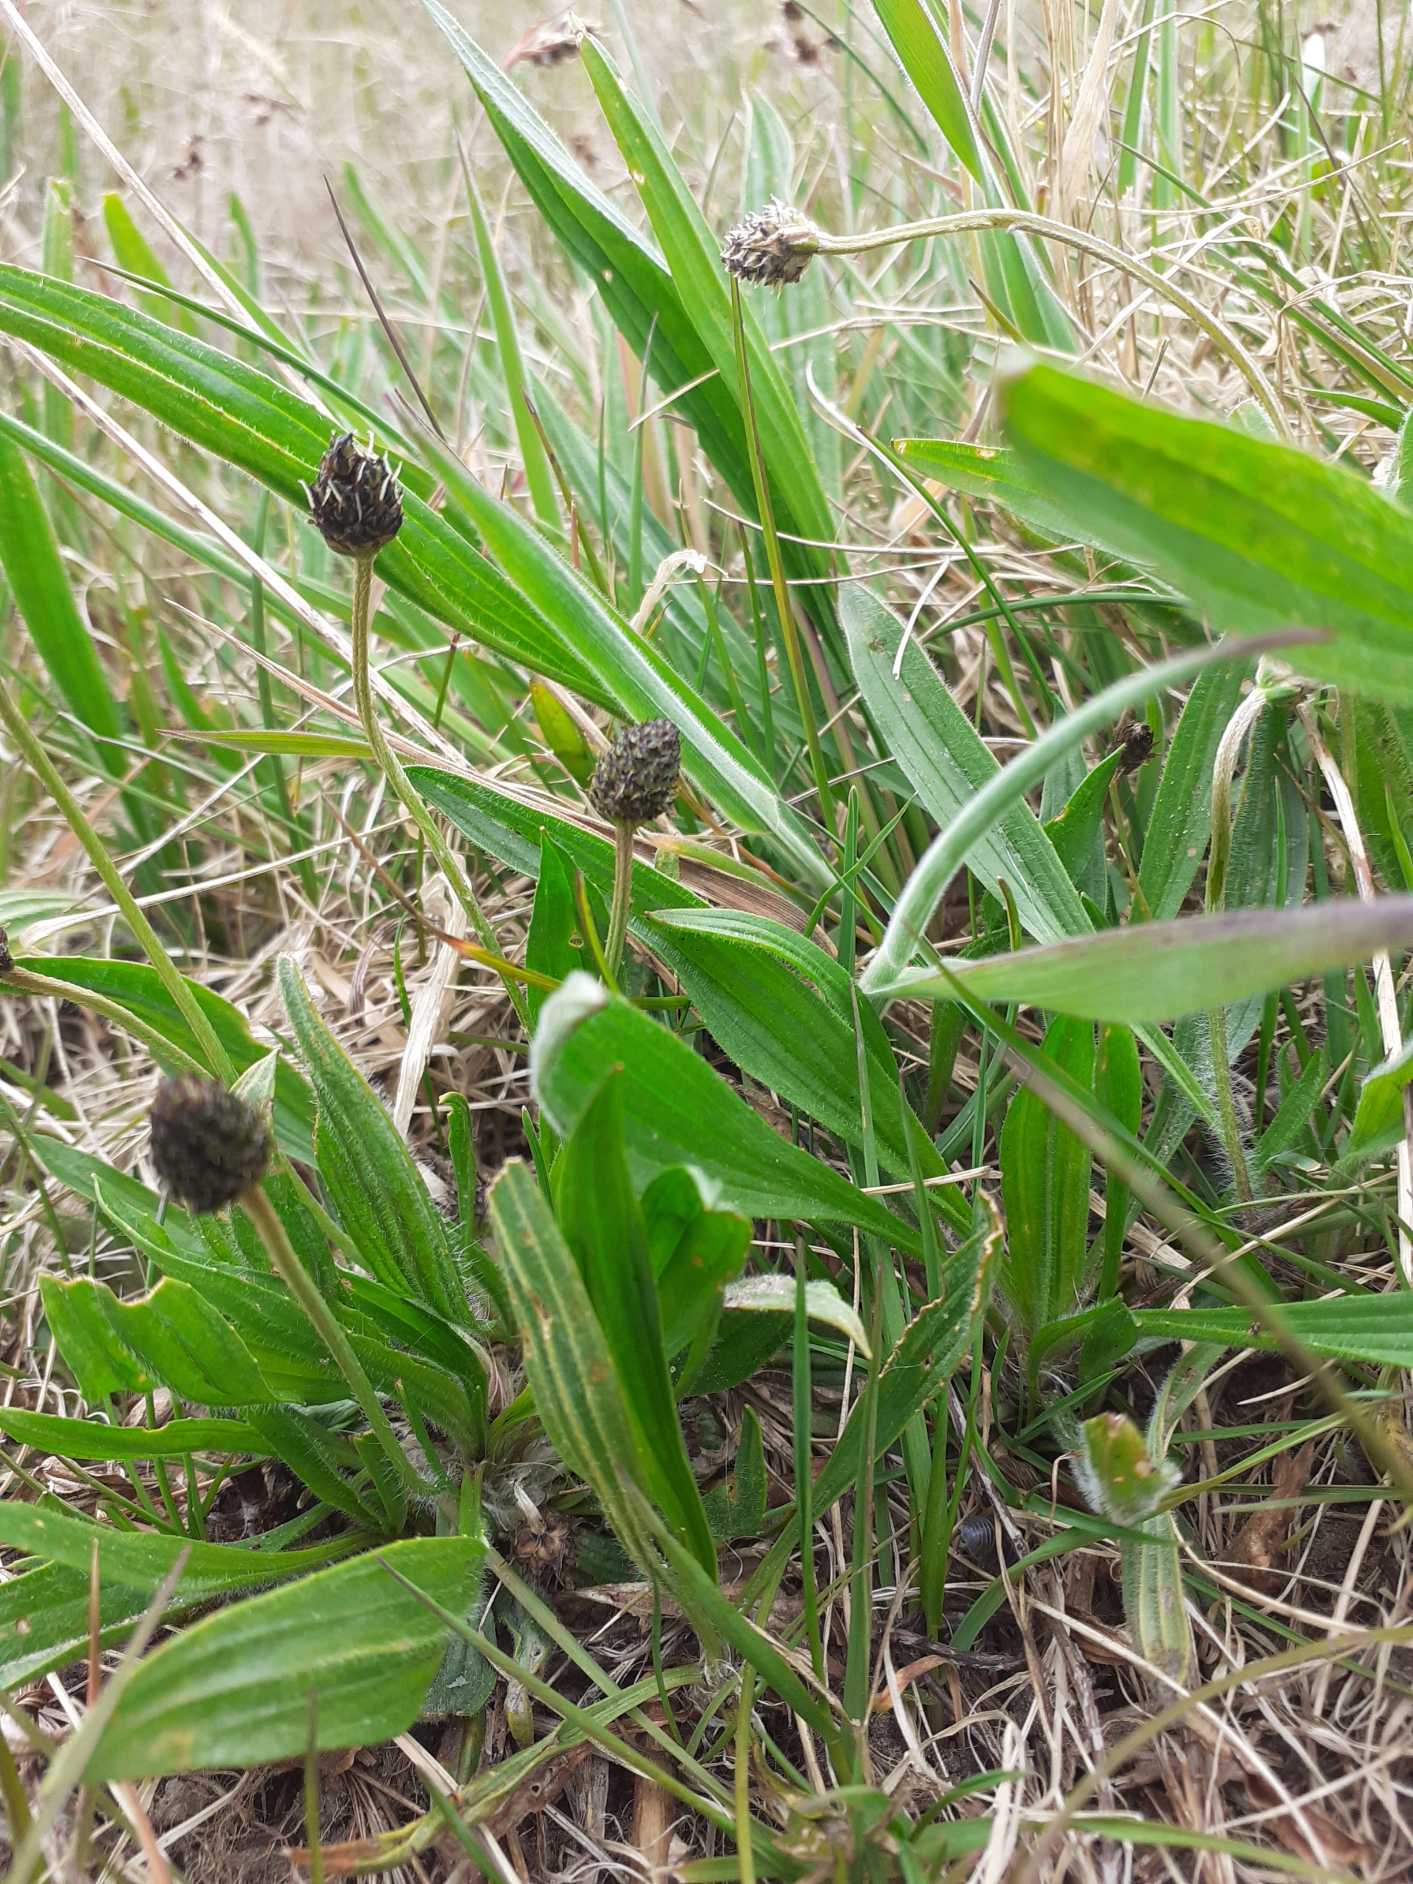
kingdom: Plantae
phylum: Tracheophyta
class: Magnoliopsida
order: Lamiales
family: Plantaginaceae
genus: Plantago
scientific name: Plantago lanceolata
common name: Lancet-vejbred
